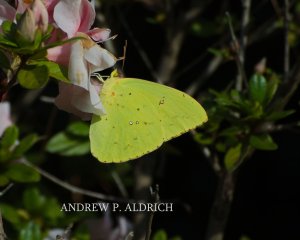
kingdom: Animalia
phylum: Arthropoda
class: Insecta
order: Lepidoptera
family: Pieridae
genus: Phoebis
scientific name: Phoebis sennae
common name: Cloudless Sulphur
